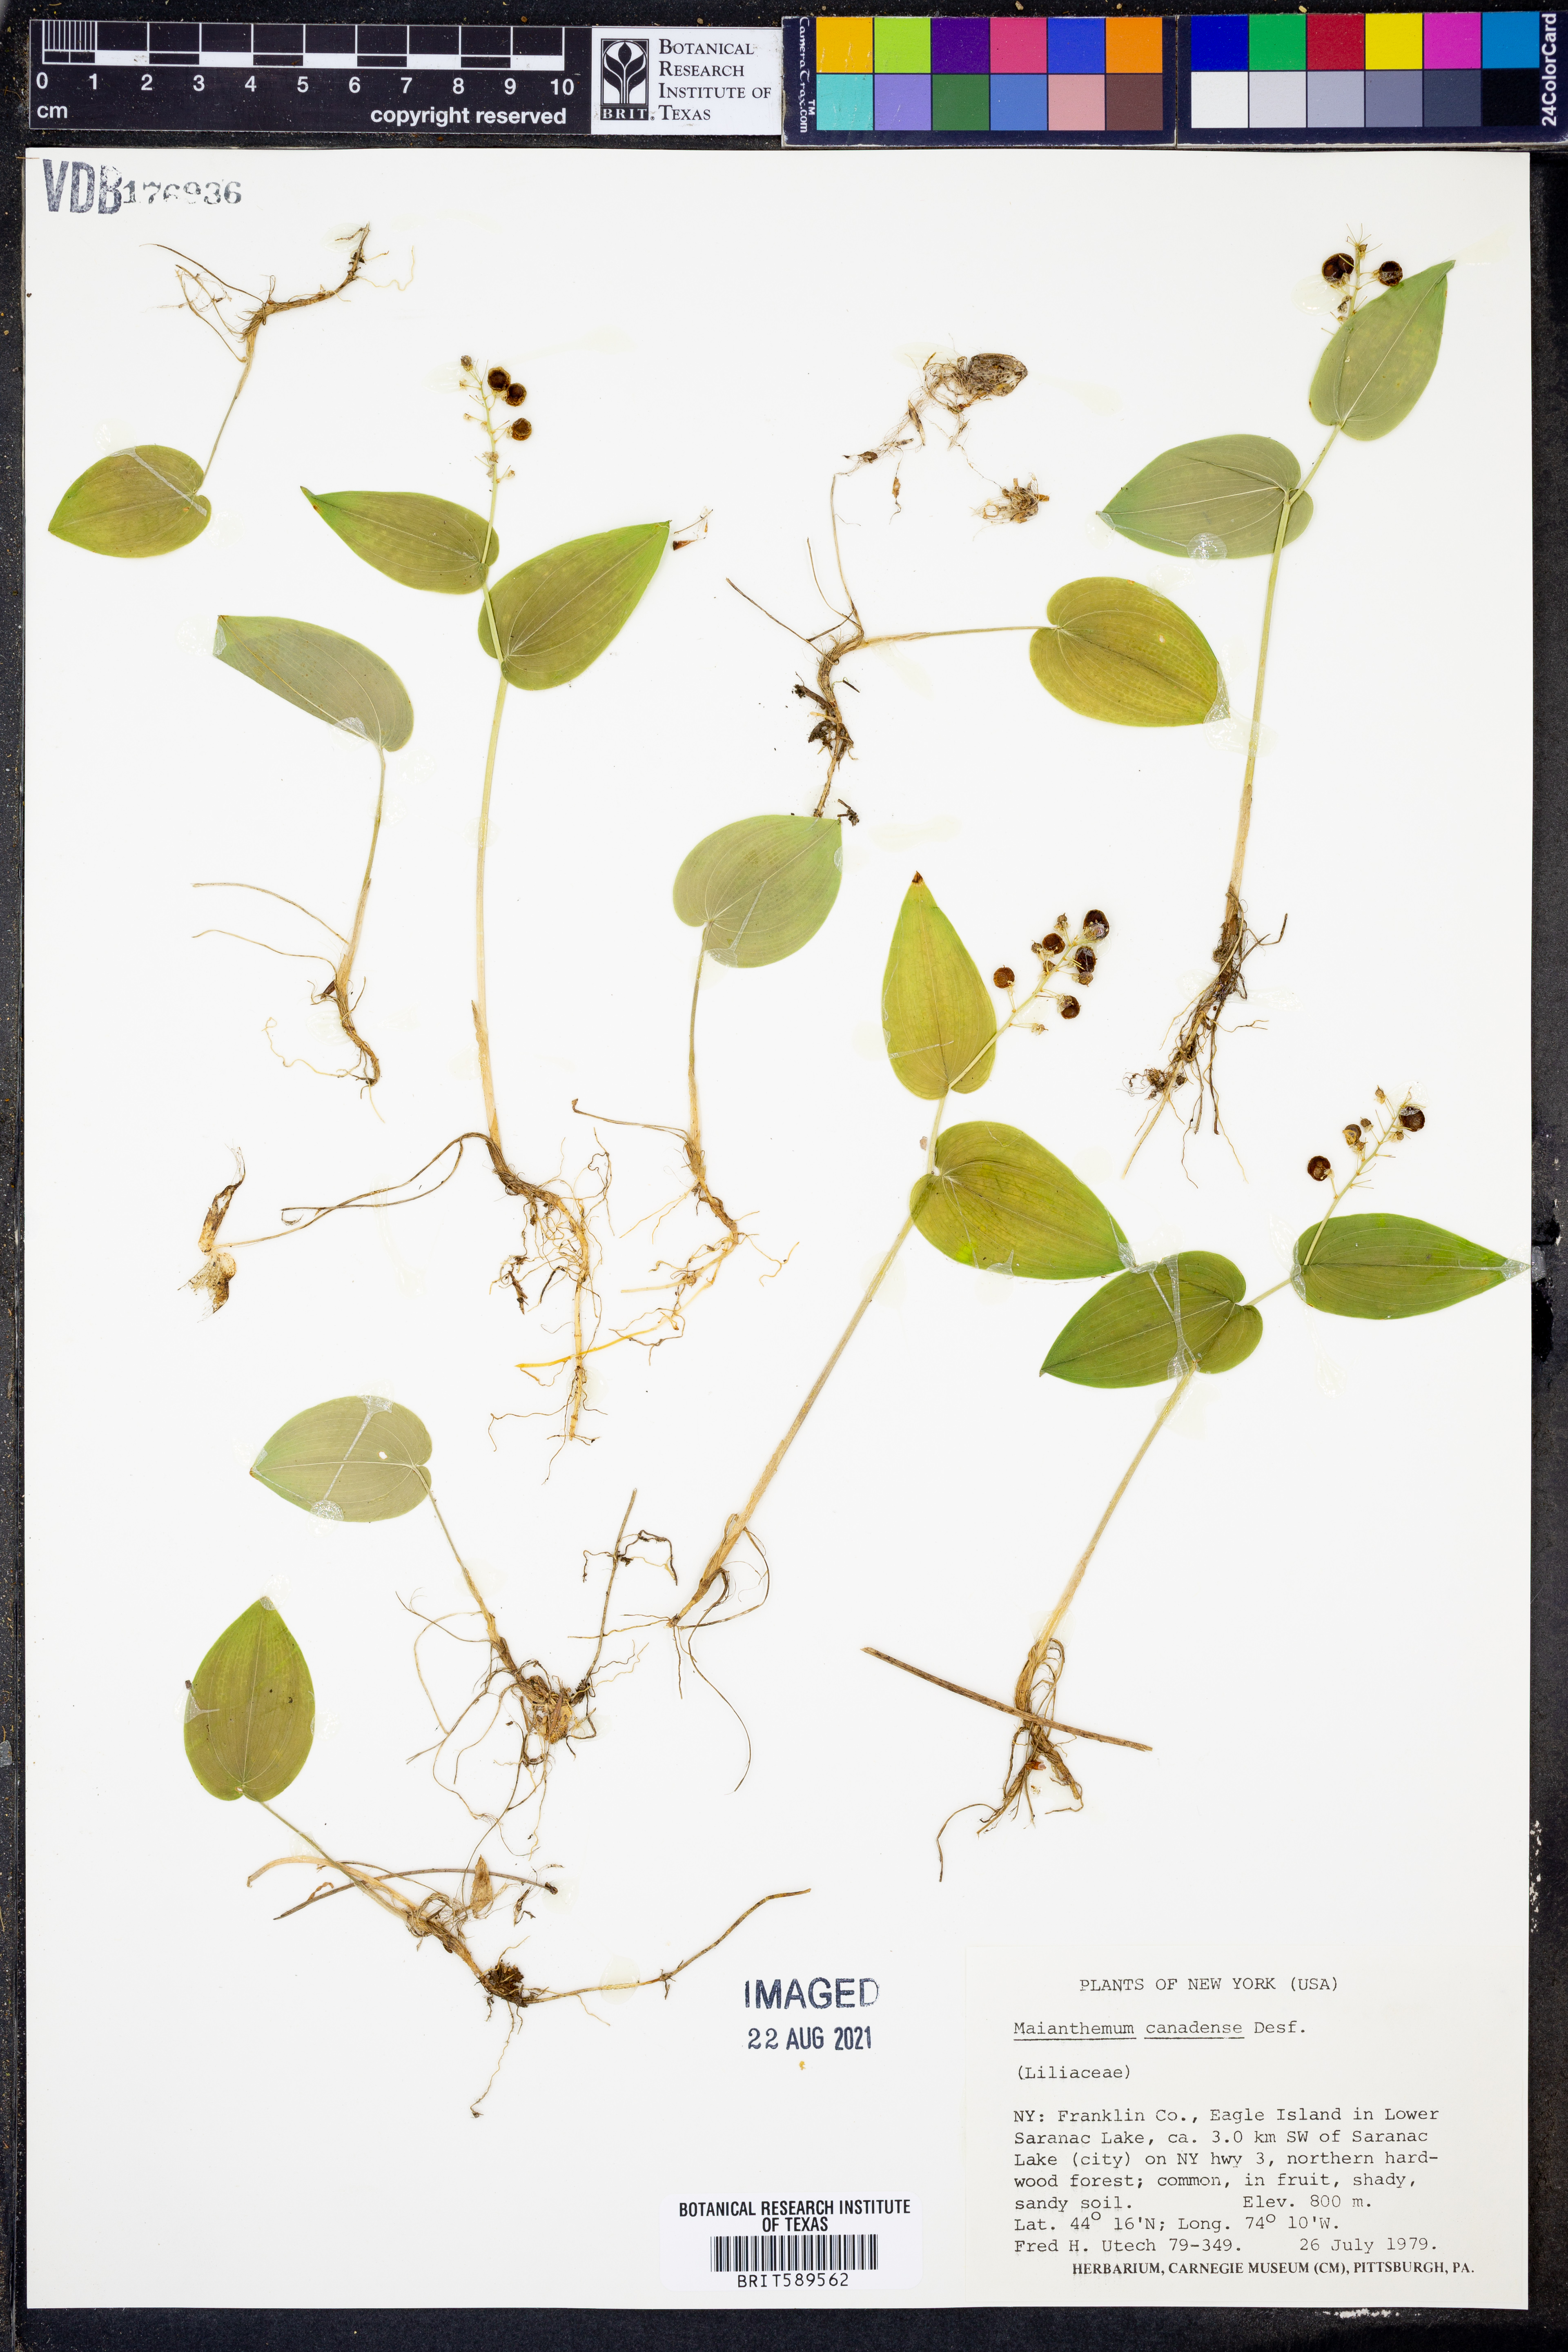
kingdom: Plantae
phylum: Tracheophyta
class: Liliopsida
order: Asparagales
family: Asparagaceae
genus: Maianthemum
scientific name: Maianthemum canadense
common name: False lily-of-the-valley
